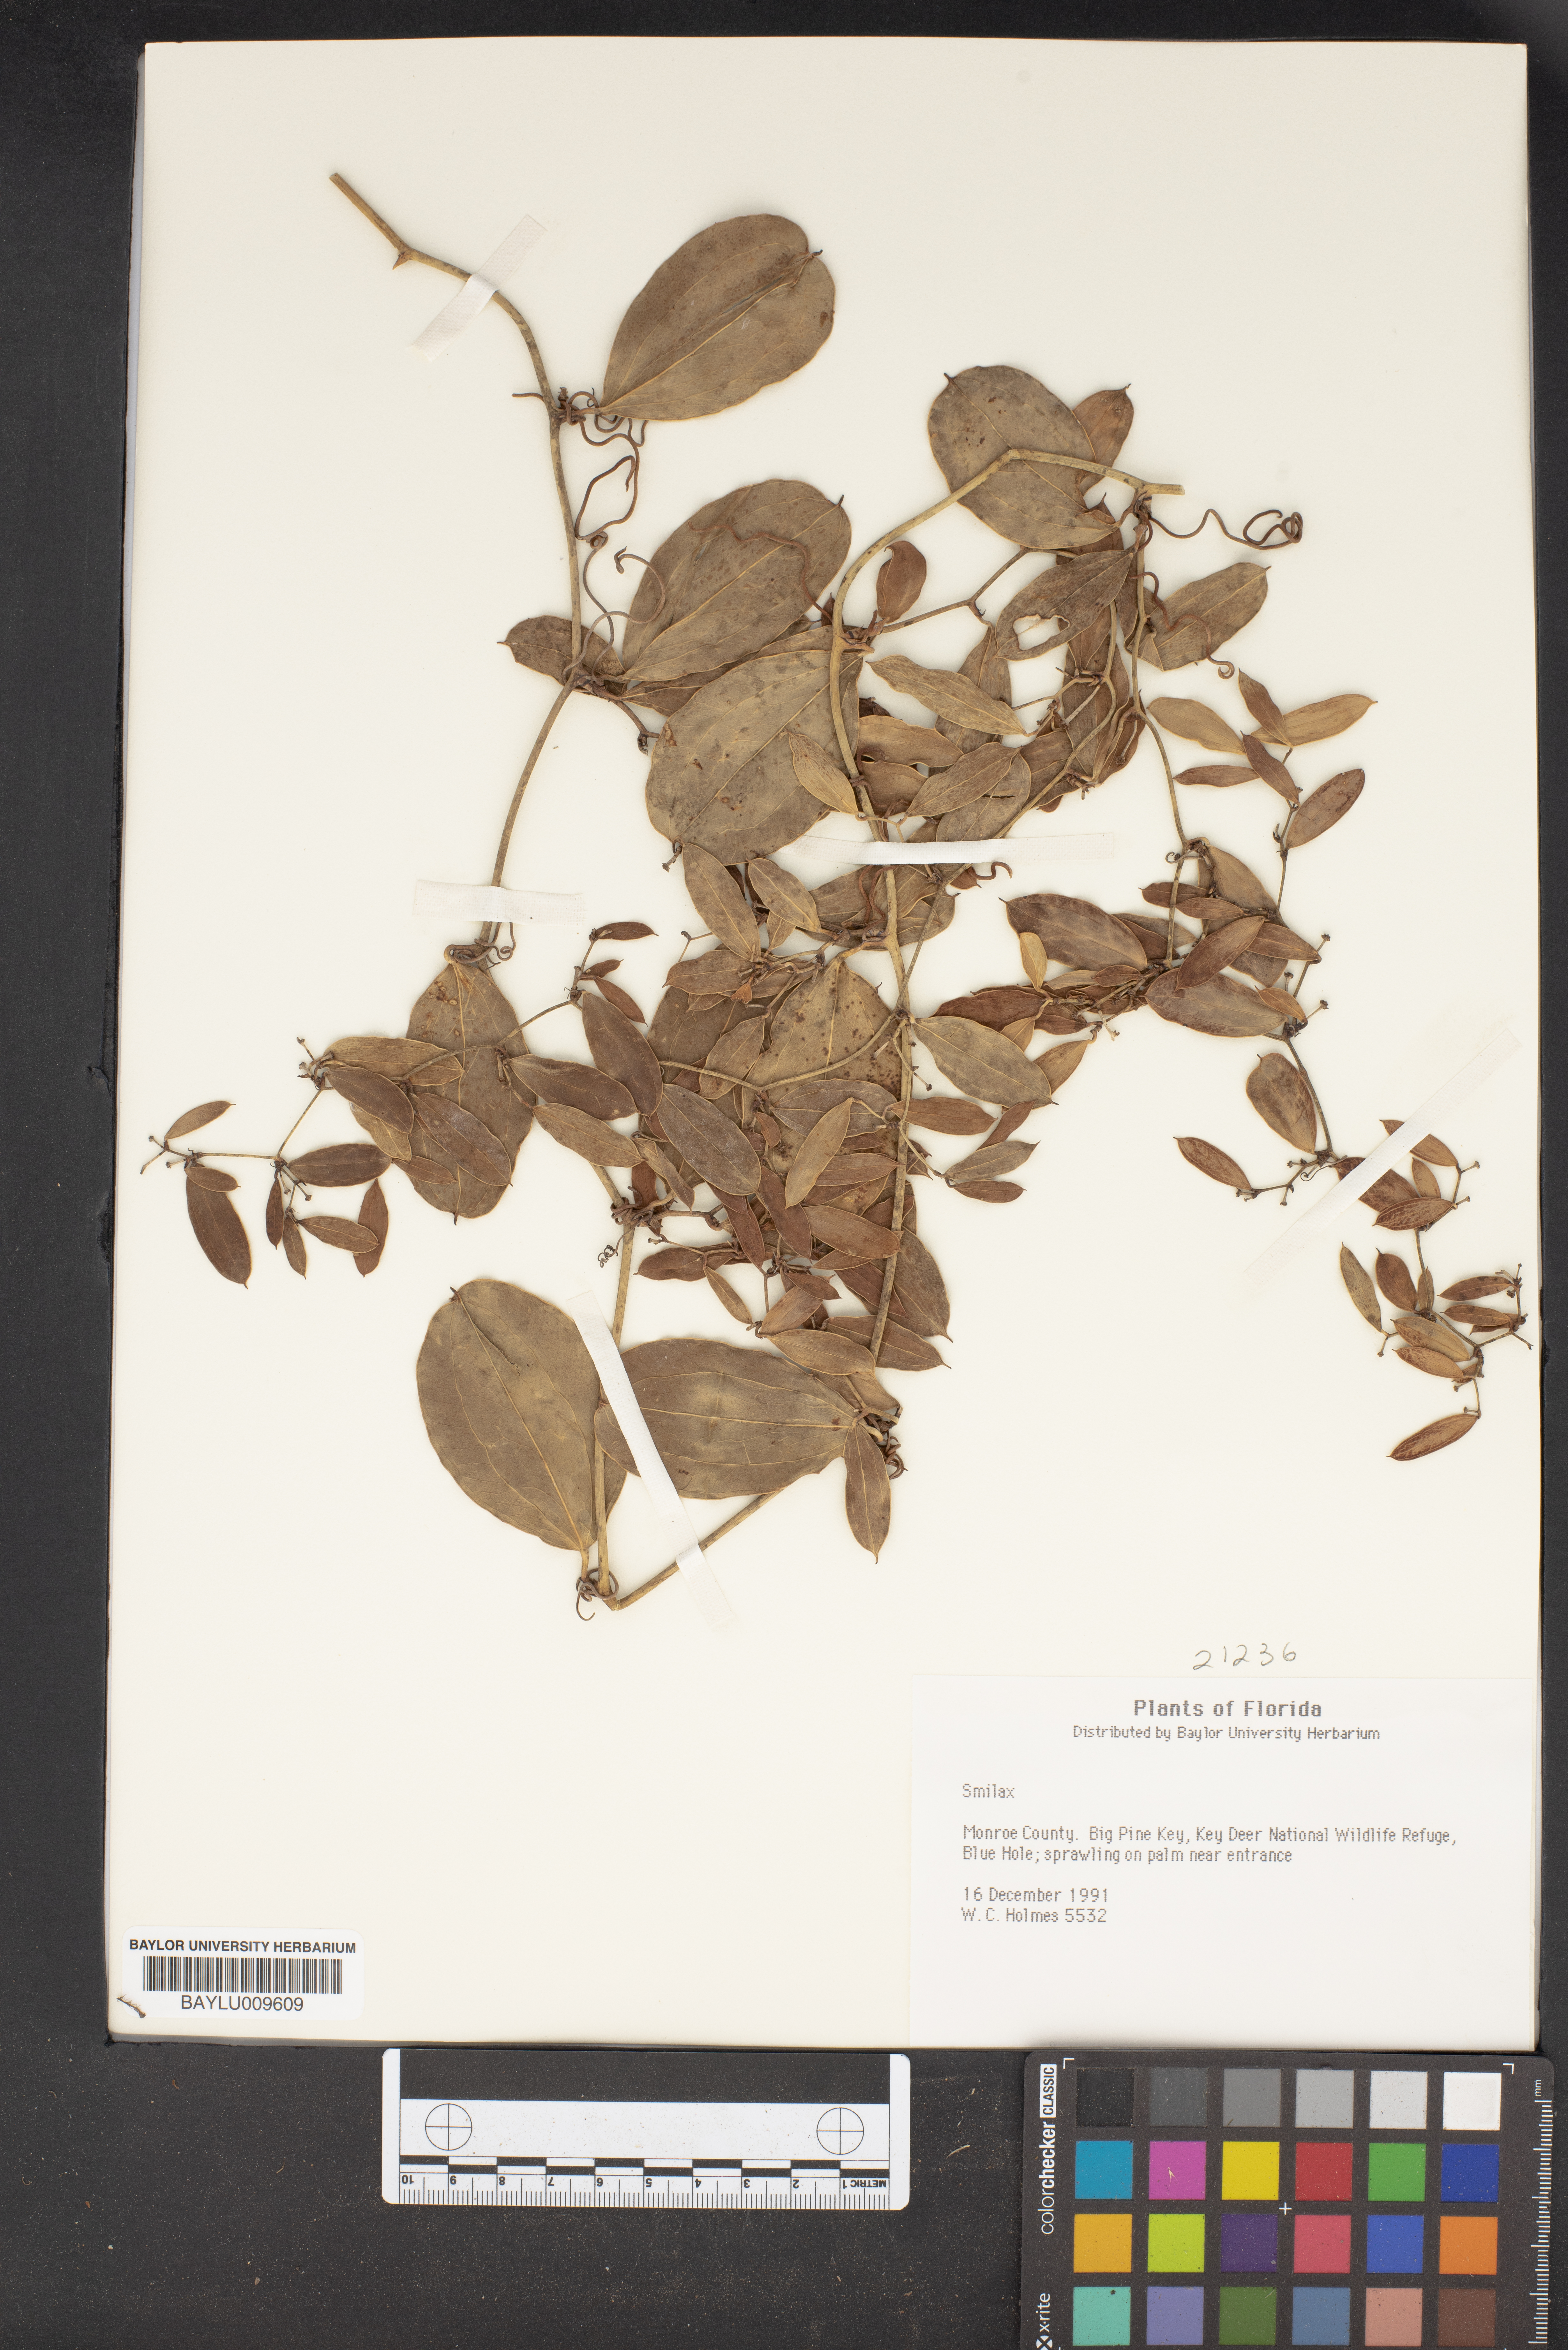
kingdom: Plantae
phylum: Tracheophyta
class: Liliopsida
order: Liliales
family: Smilacaceae
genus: Smilax
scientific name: Smilax
